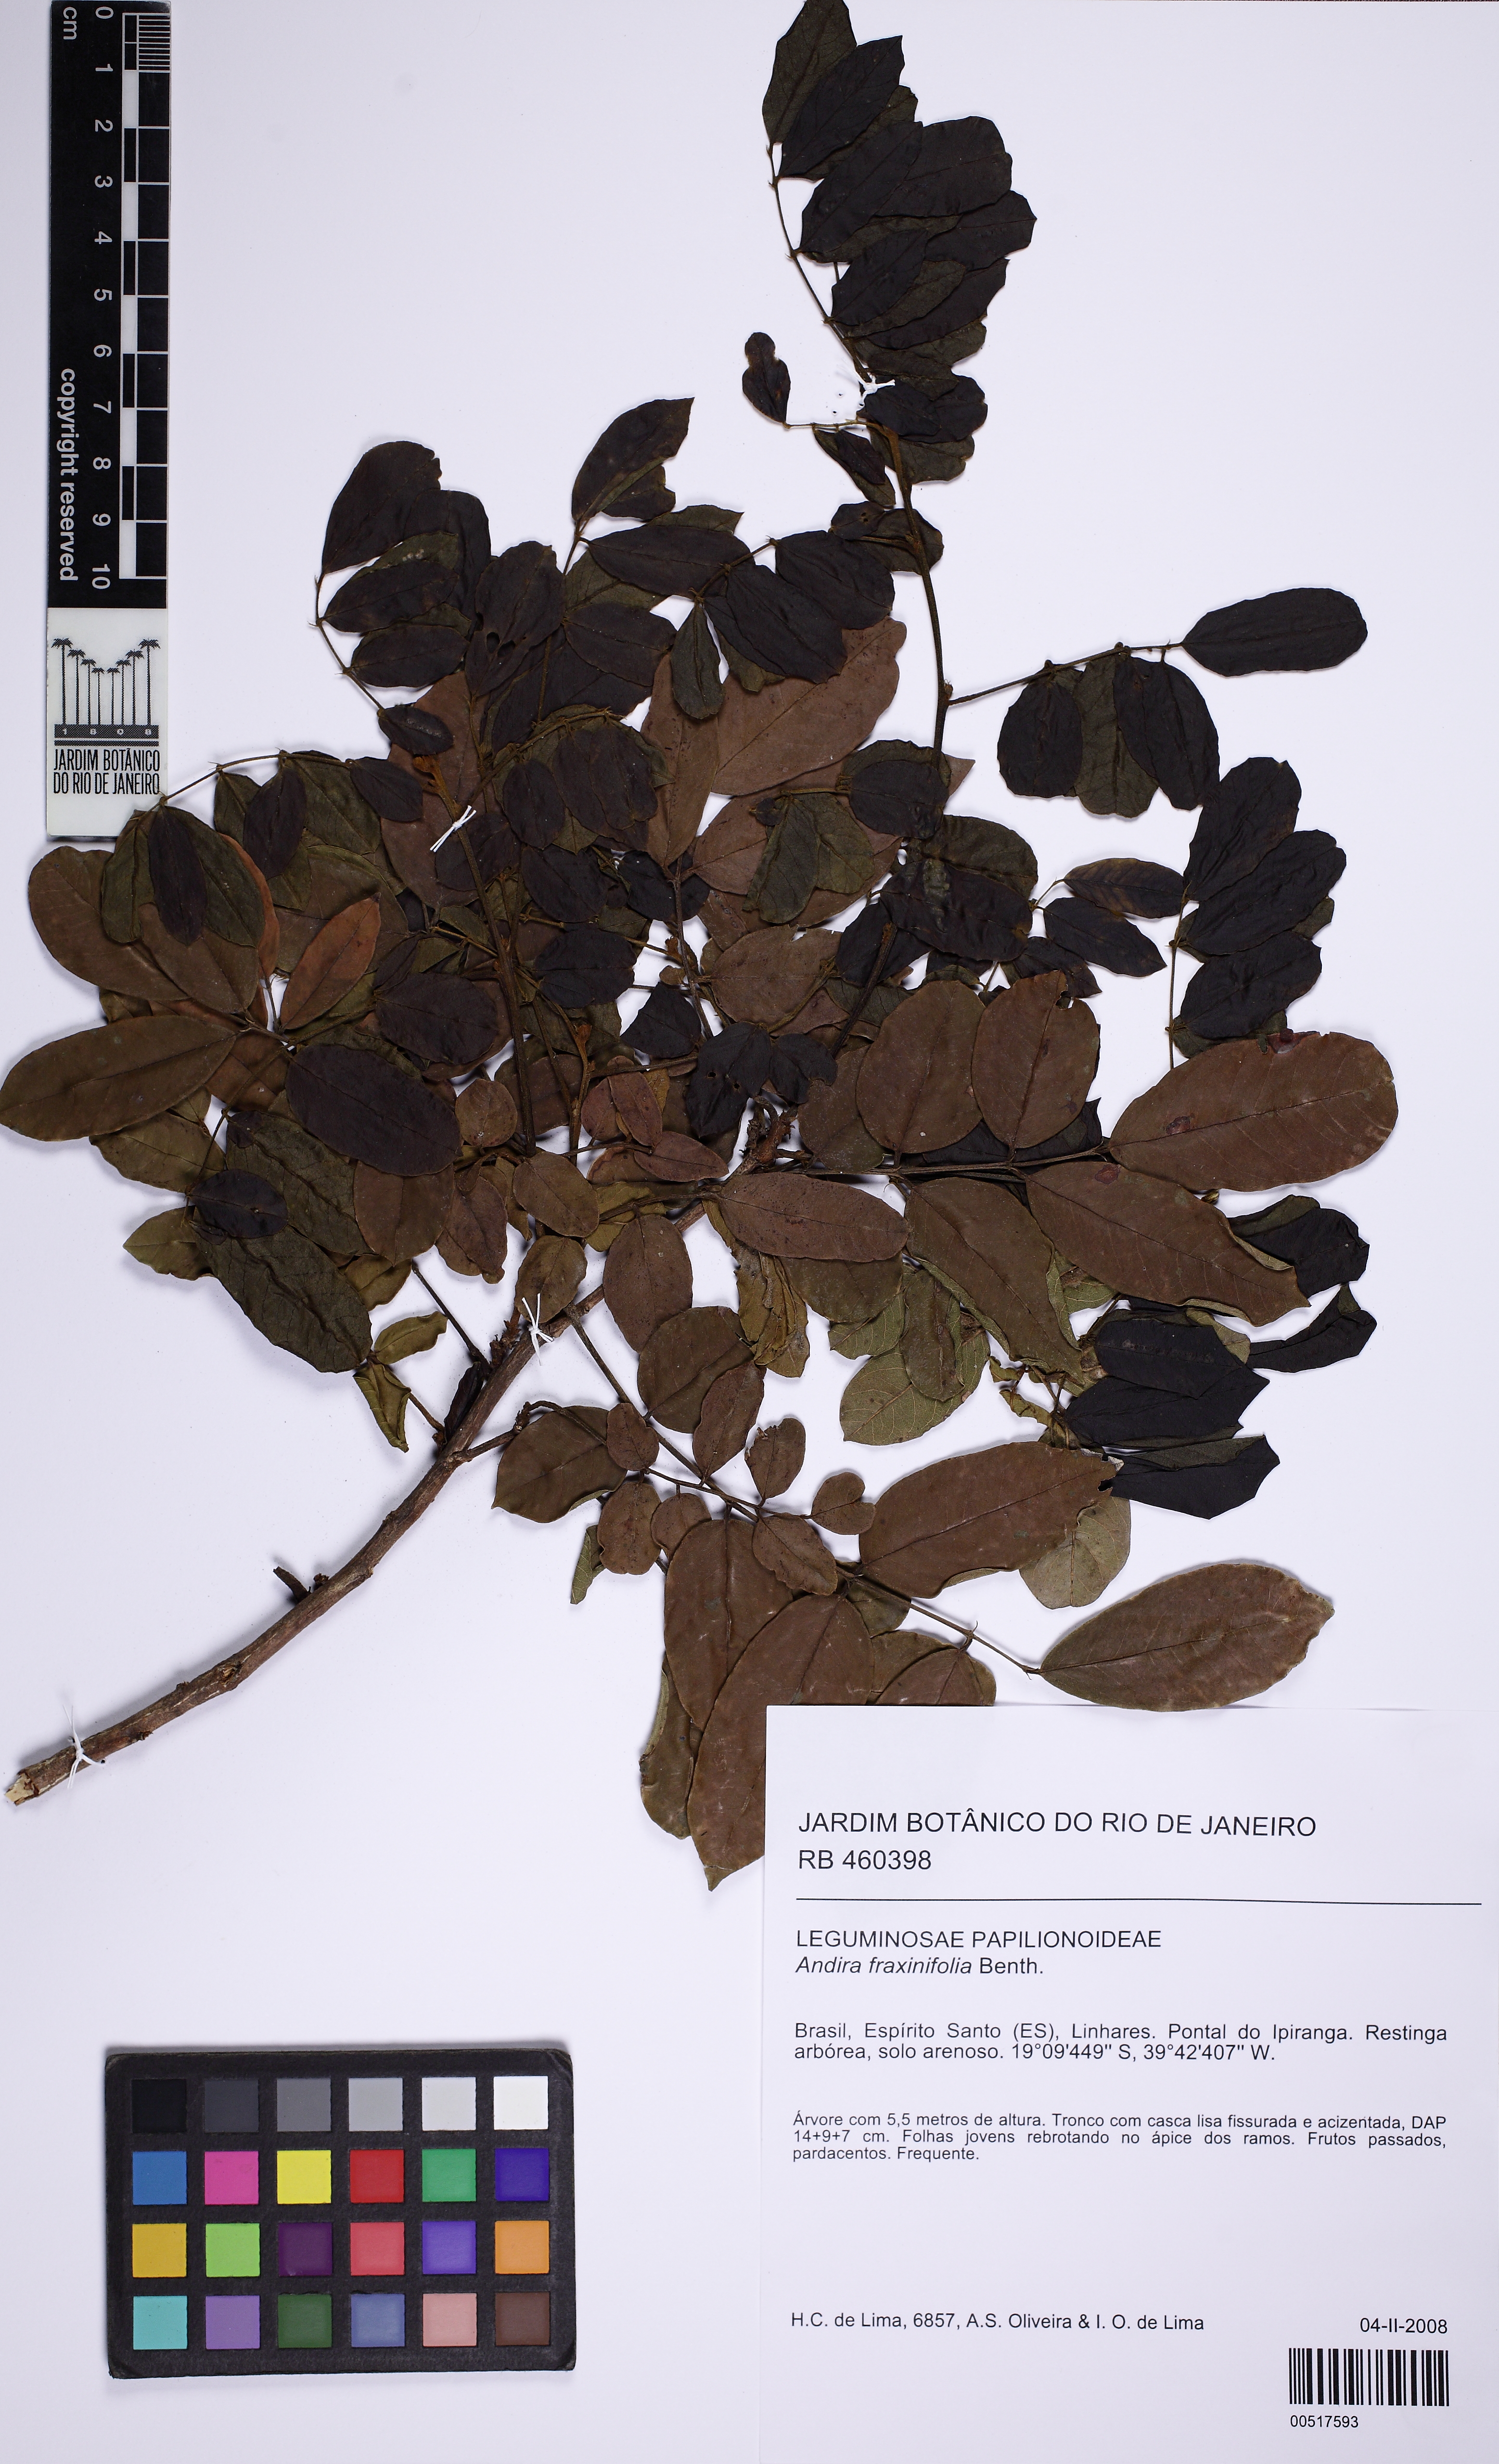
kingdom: Plantae
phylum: Tracheophyta
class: Magnoliopsida
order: Fabales
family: Fabaceae
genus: Andira
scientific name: Andira fraxinifolia
